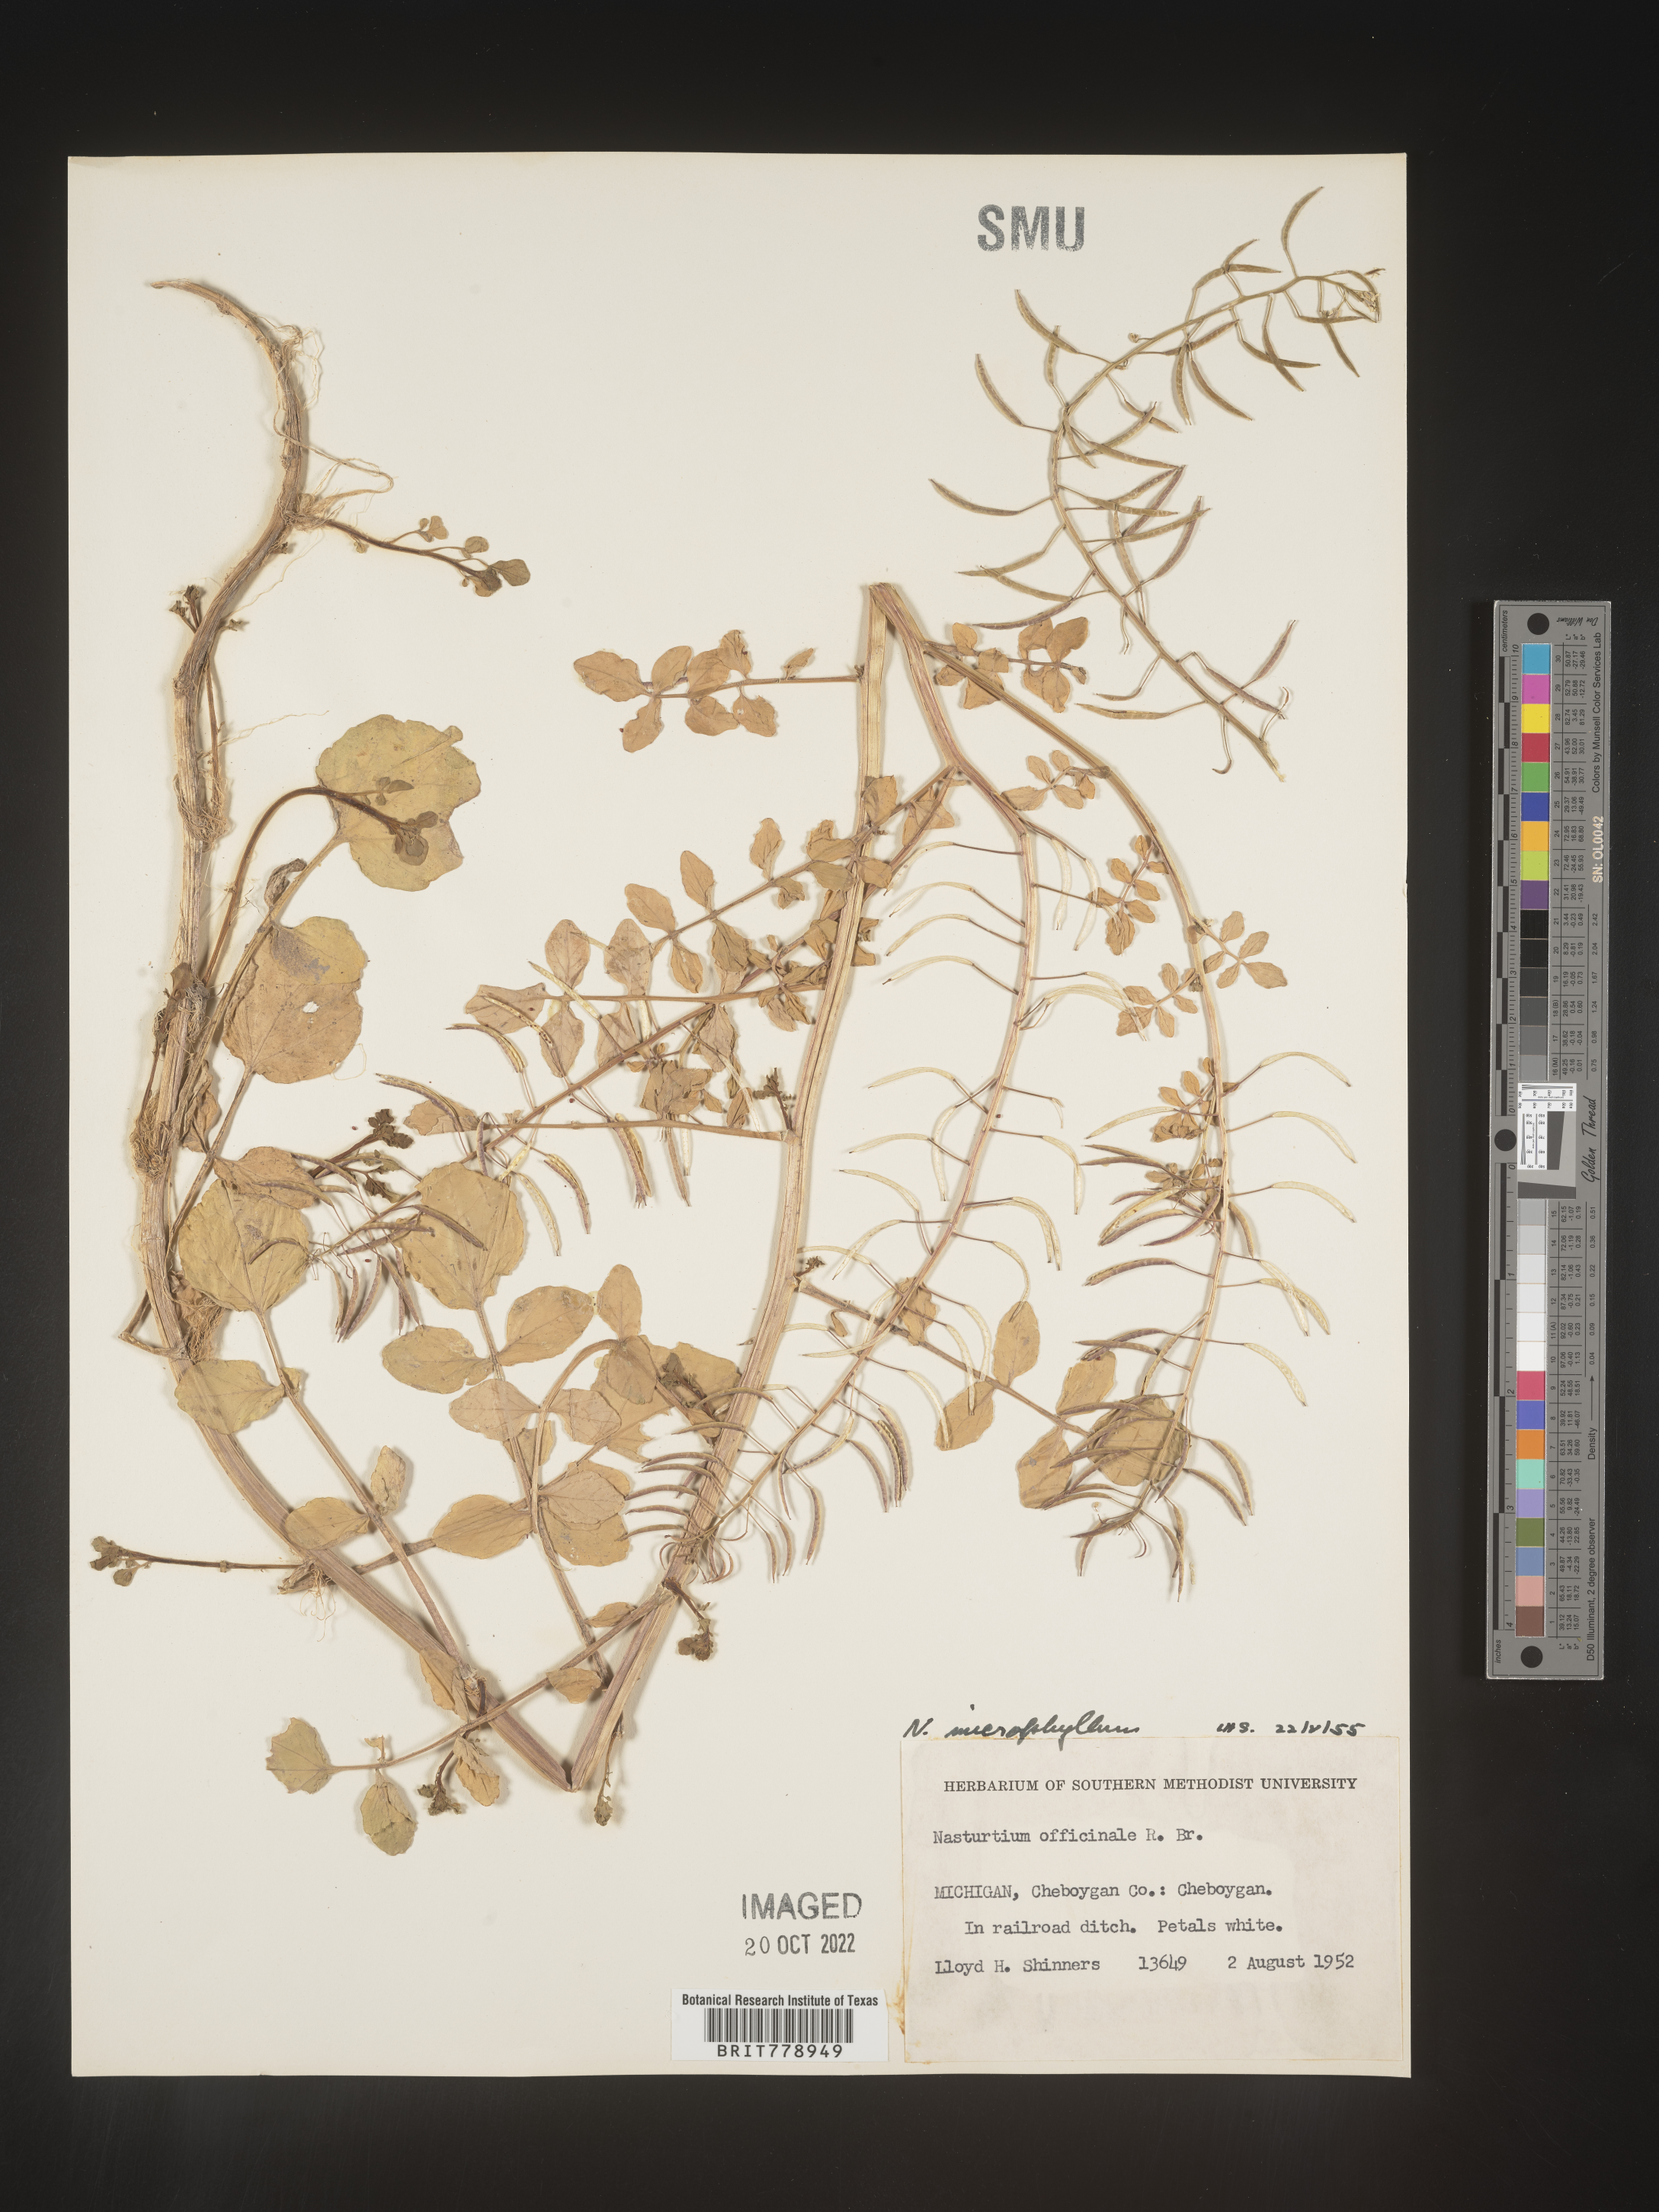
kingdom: Plantae
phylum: Tracheophyta
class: Magnoliopsida
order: Brassicales
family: Brassicaceae
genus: Nasturtium
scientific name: Nasturtium officinale
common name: Watercress
